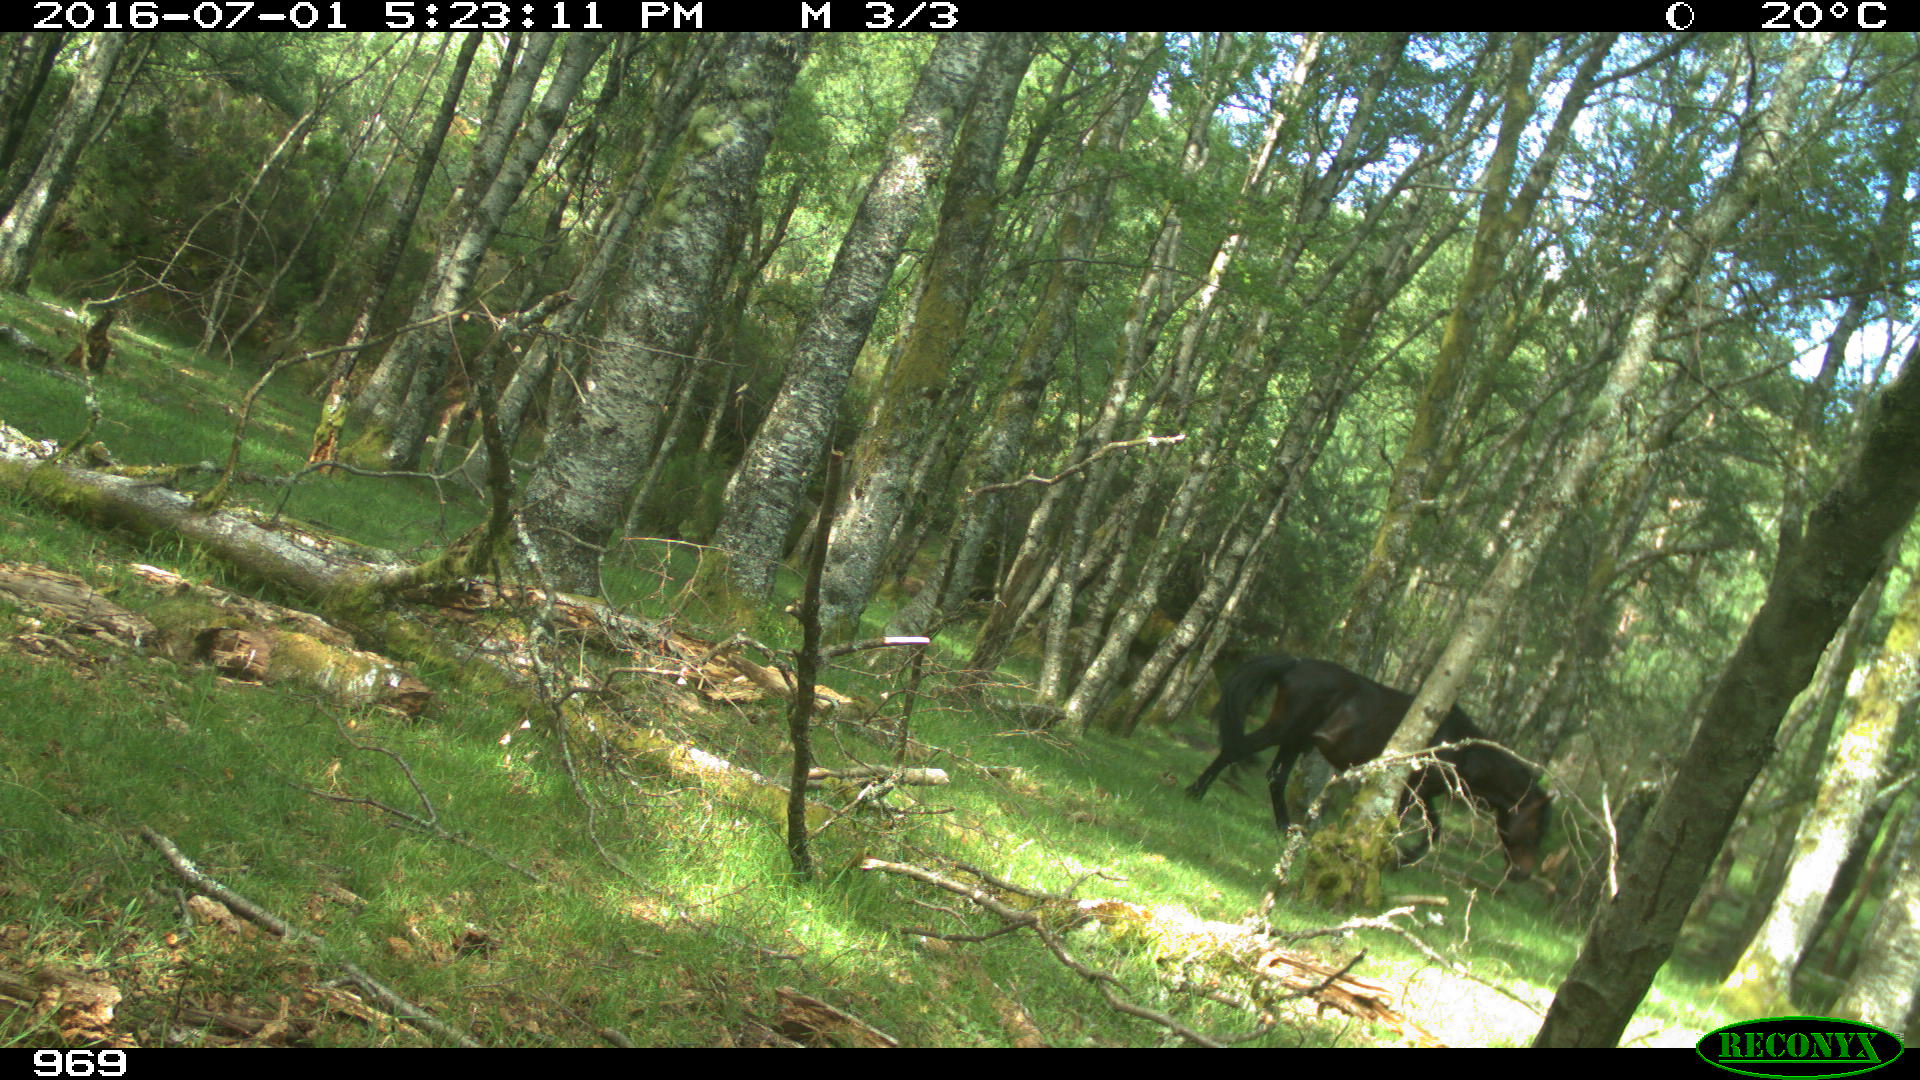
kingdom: Animalia
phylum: Chordata
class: Mammalia
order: Perissodactyla
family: Equidae
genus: Equus
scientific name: Equus caballus
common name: Horse
